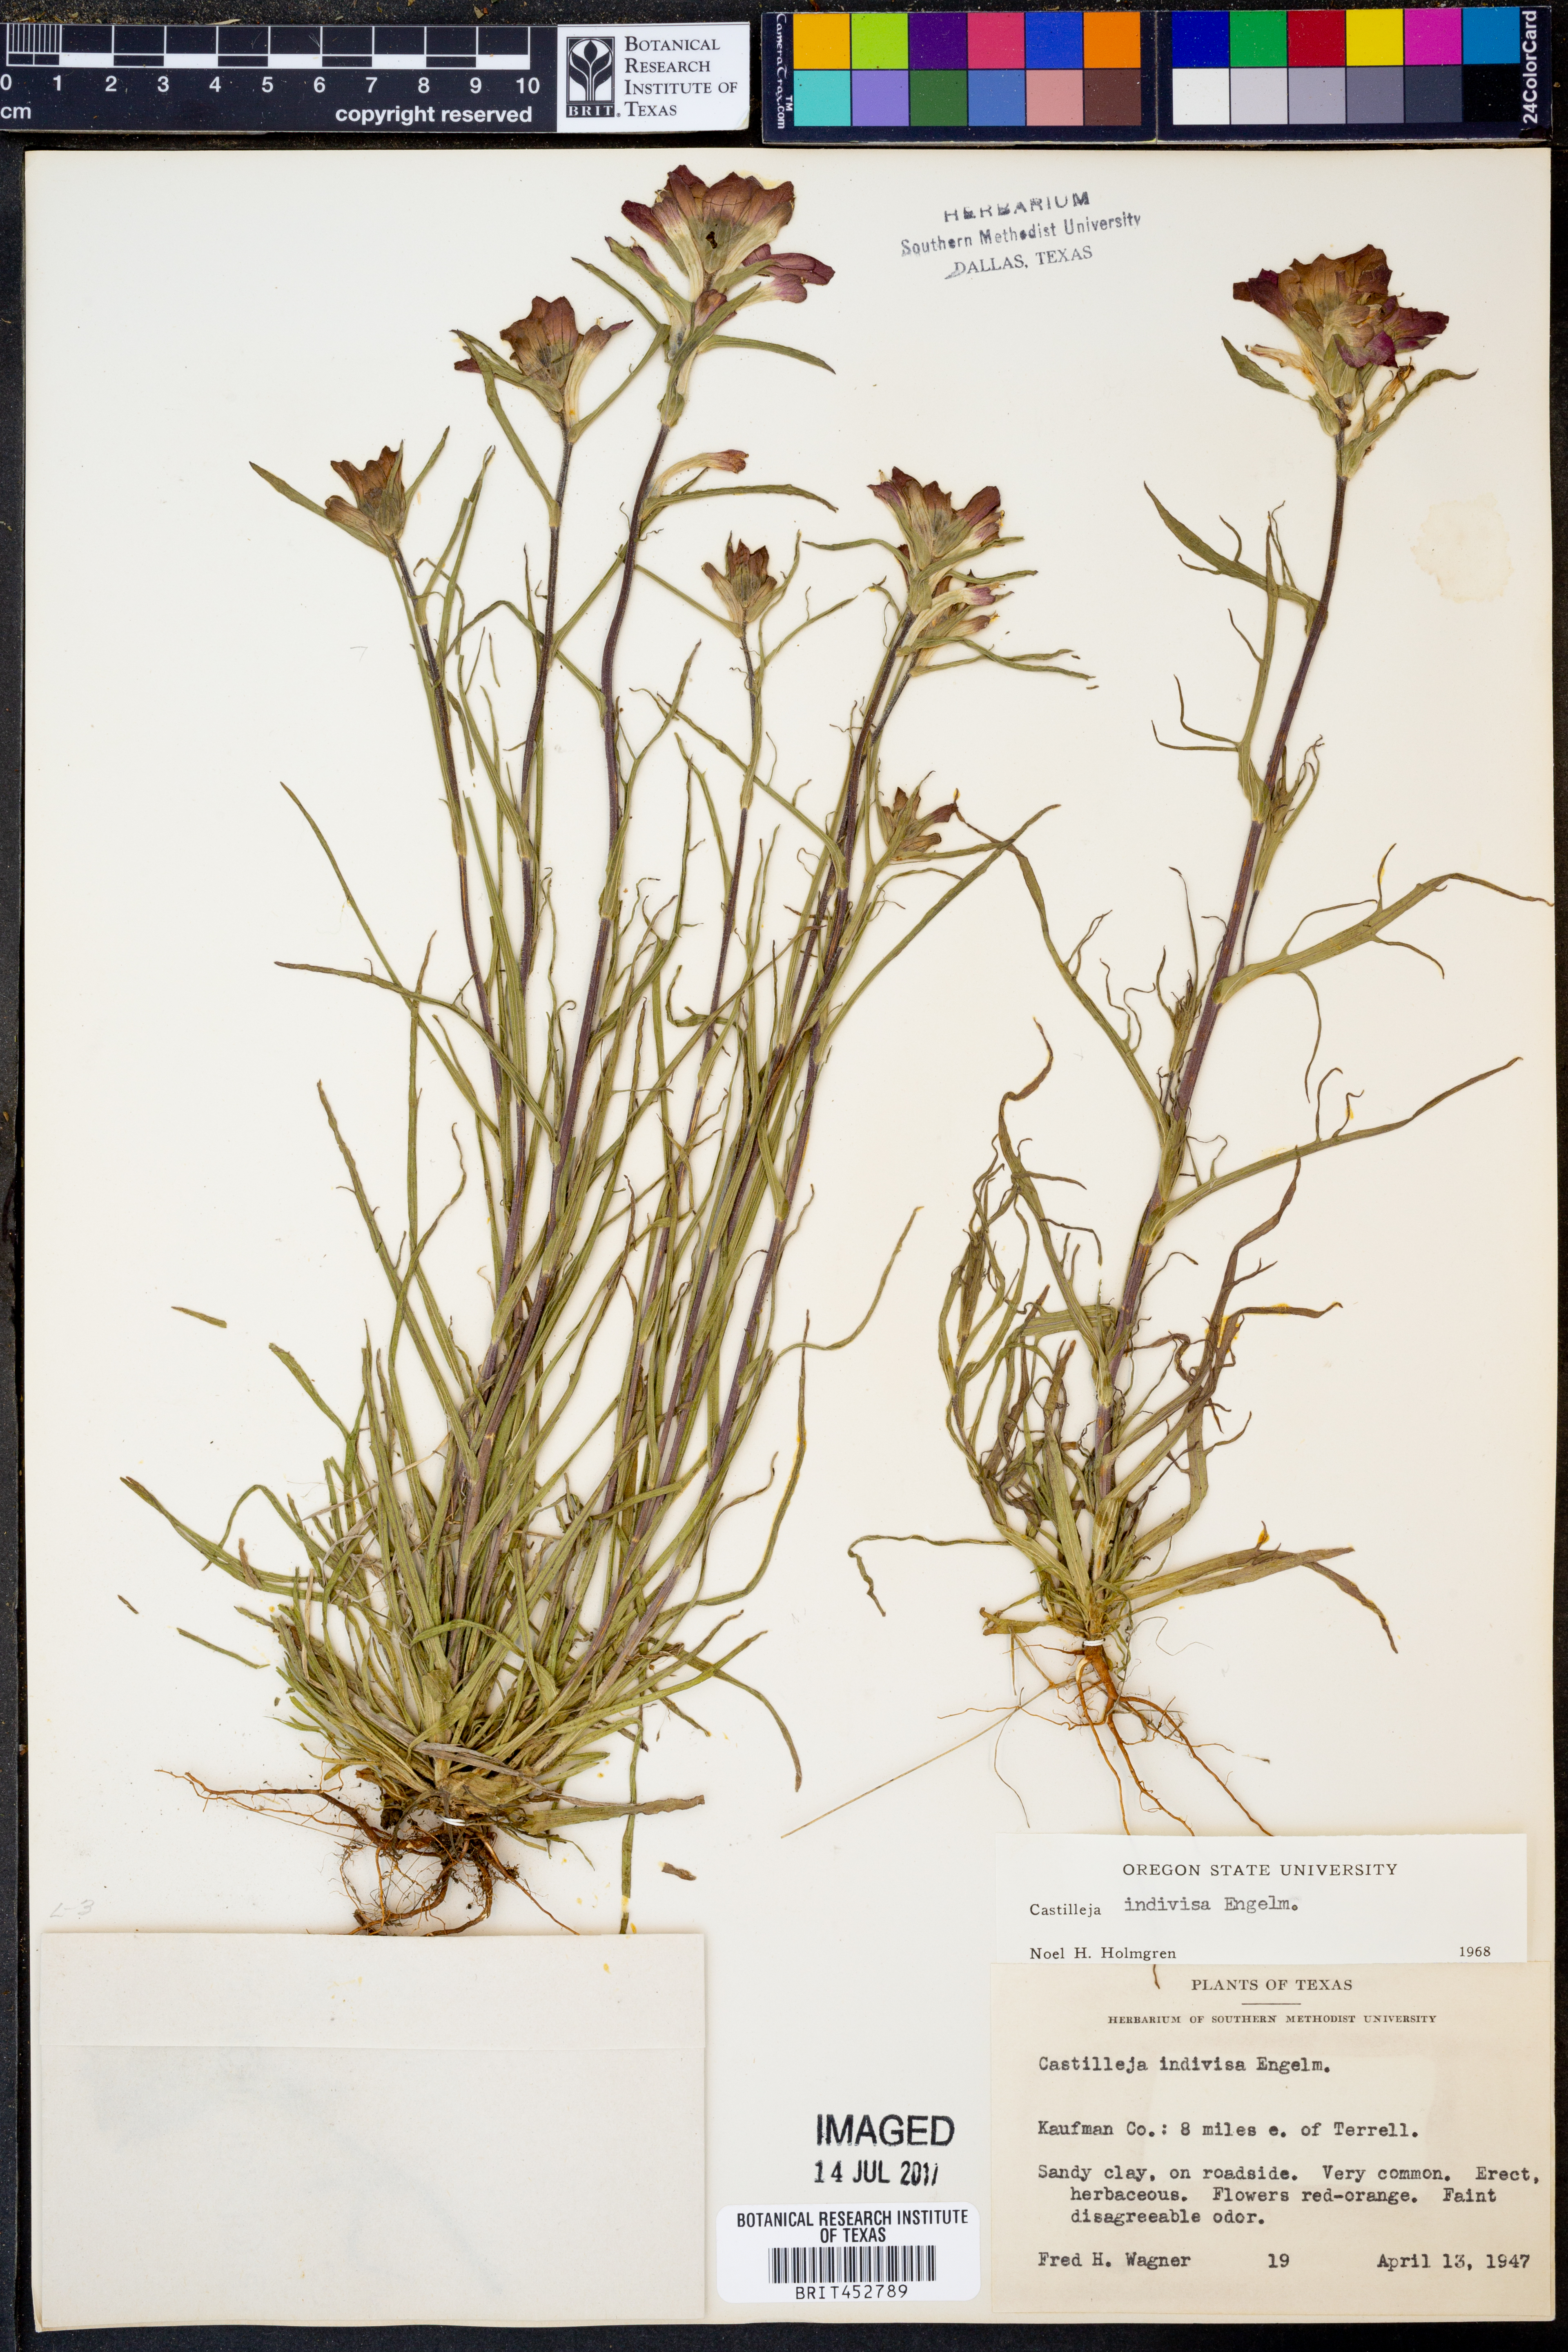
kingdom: Plantae
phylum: Tracheophyta
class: Magnoliopsida
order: Lamiales
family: Orobanchaceae
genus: Castilleja
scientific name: Castilleja indivisa
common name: Texas paintbrush
